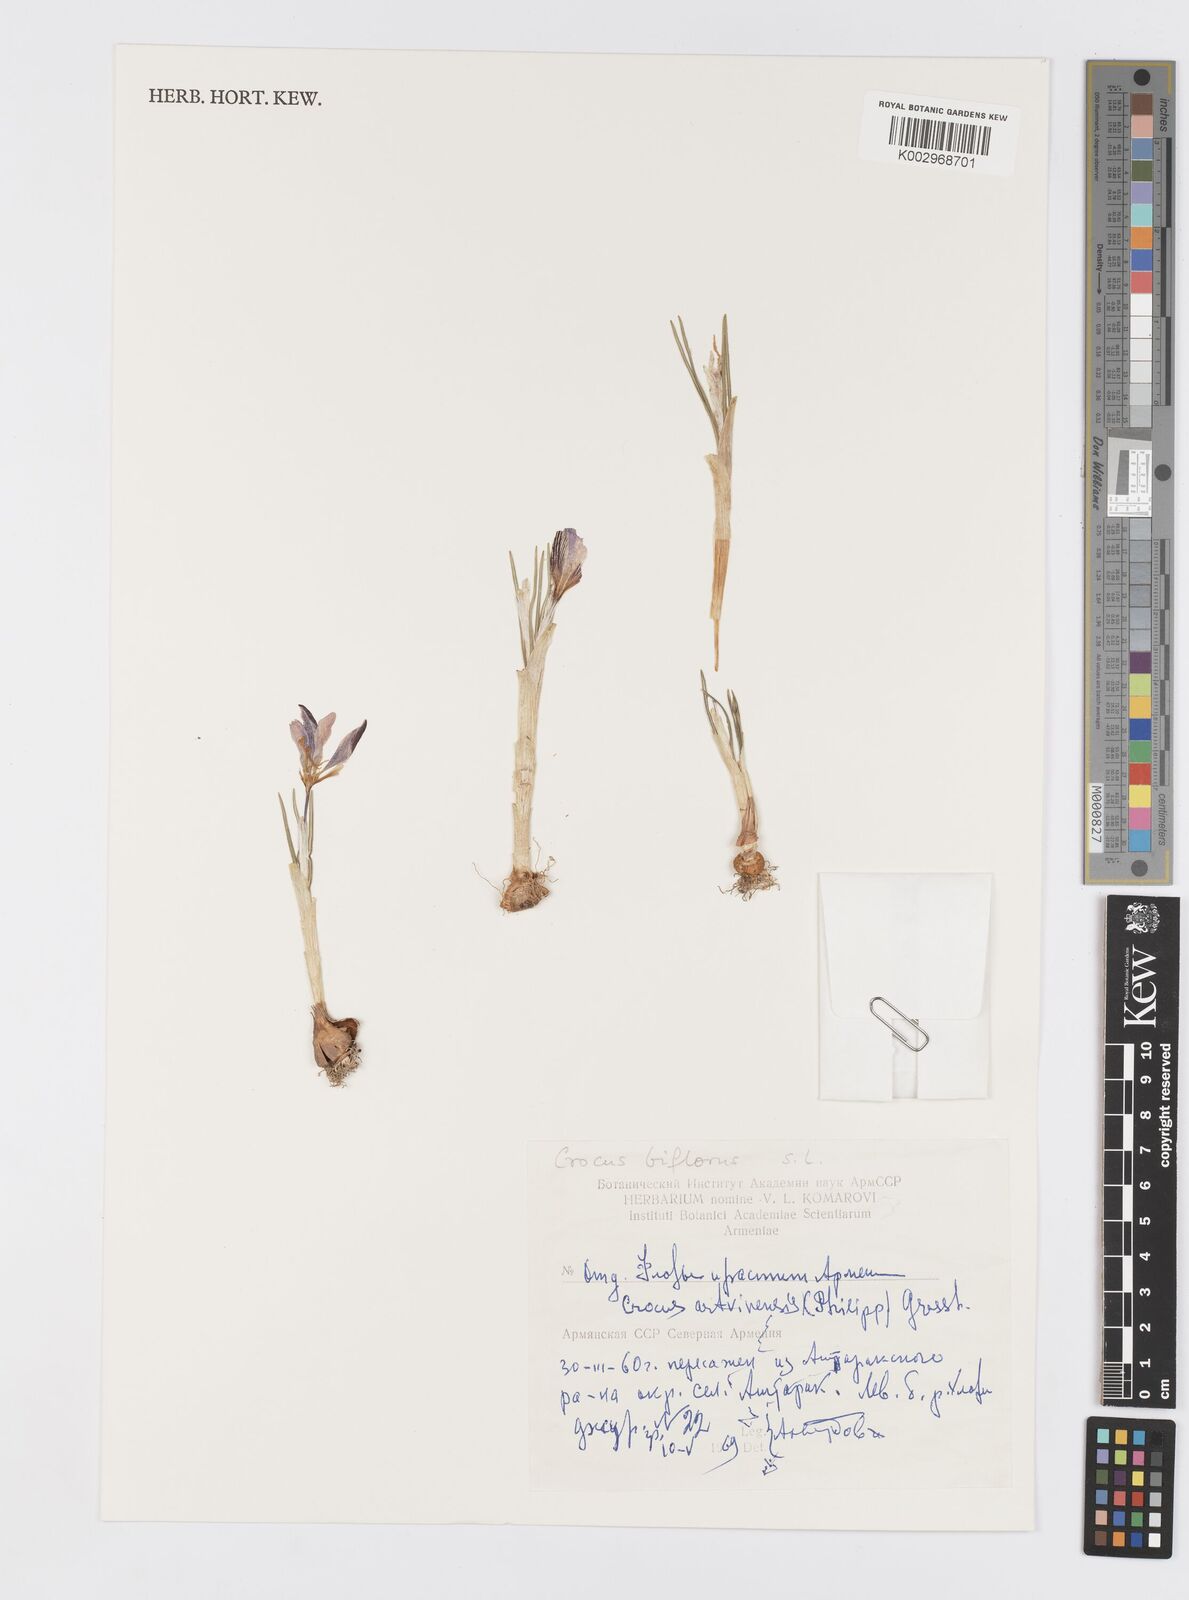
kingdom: Plantae
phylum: Tracheophyta
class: Liliopsida
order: Asparagales
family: Iridaceae
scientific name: Iridaceae
